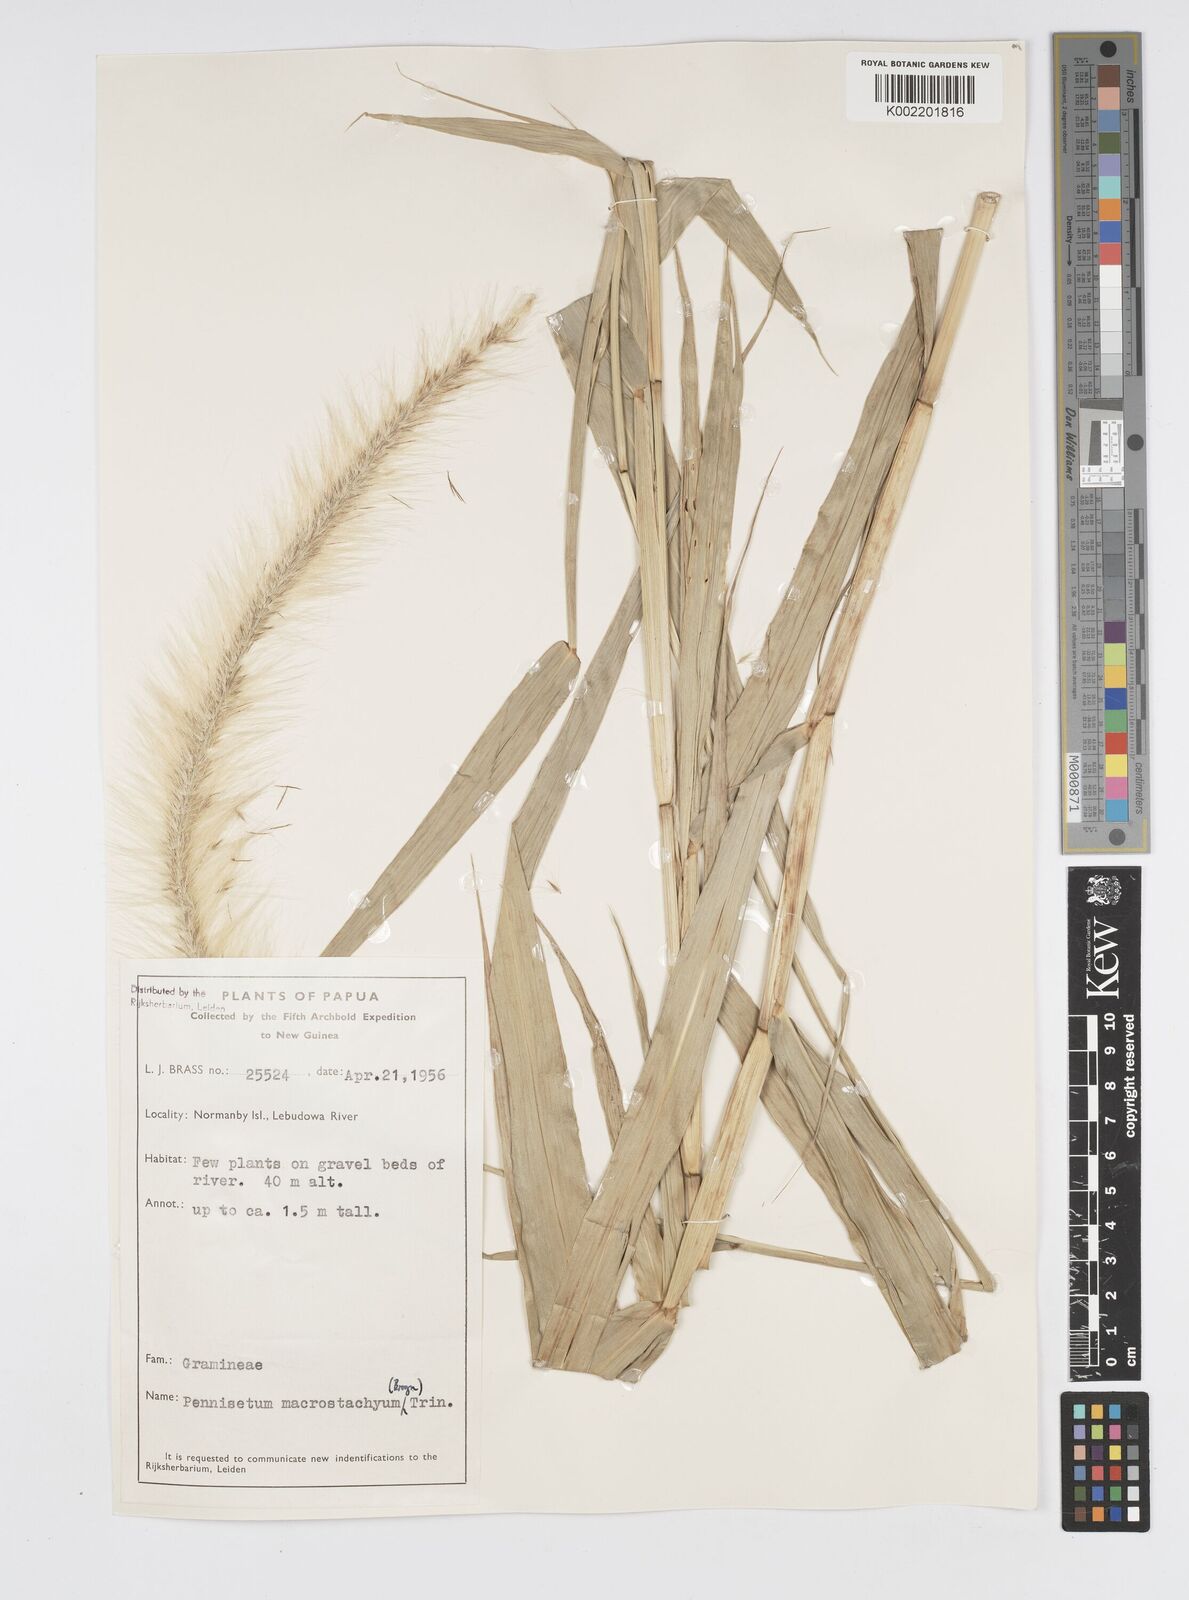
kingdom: Plantae
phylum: Tracheophyta
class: Liliopsida
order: Poales
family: Poaceae
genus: Cenchrus
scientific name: Cenchrus purpureus
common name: Elephant grass
